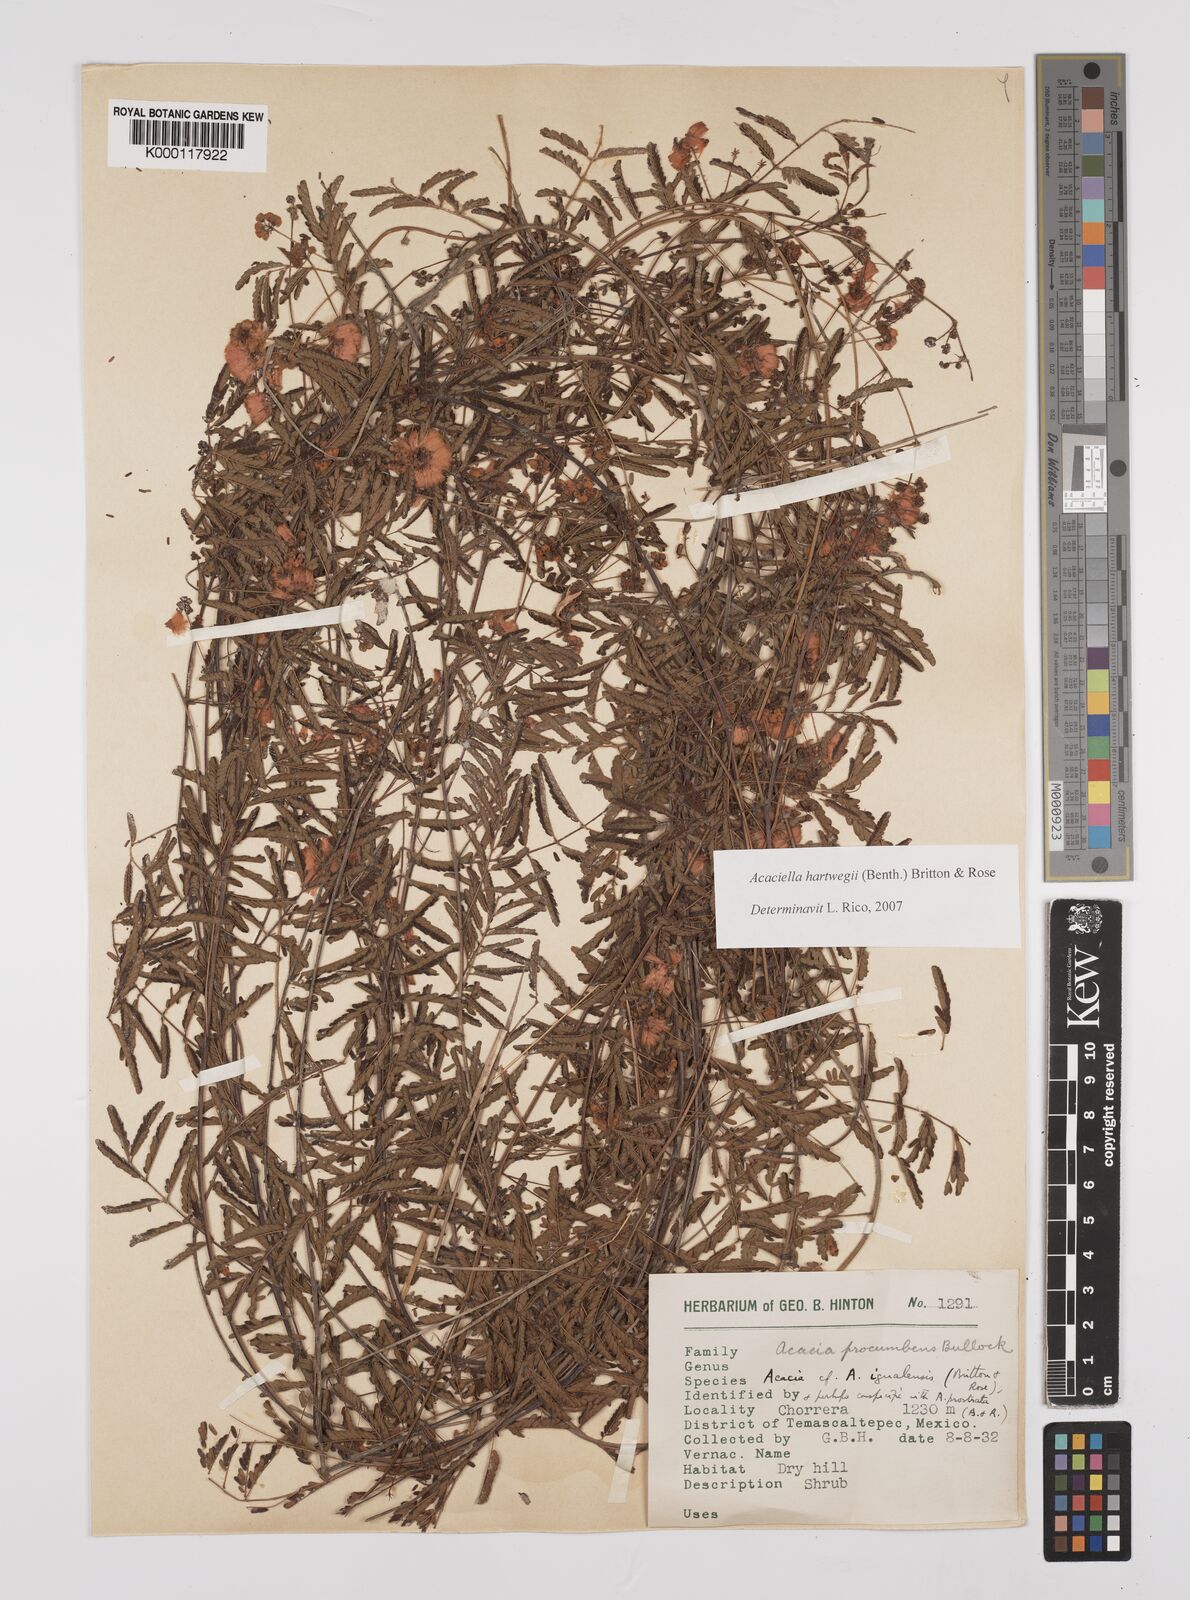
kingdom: Plantae
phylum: Tracheophyta
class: Magnoliopsida
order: Fabales
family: Fabaceae
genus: Acaciella
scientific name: Acaciella hartwegii
